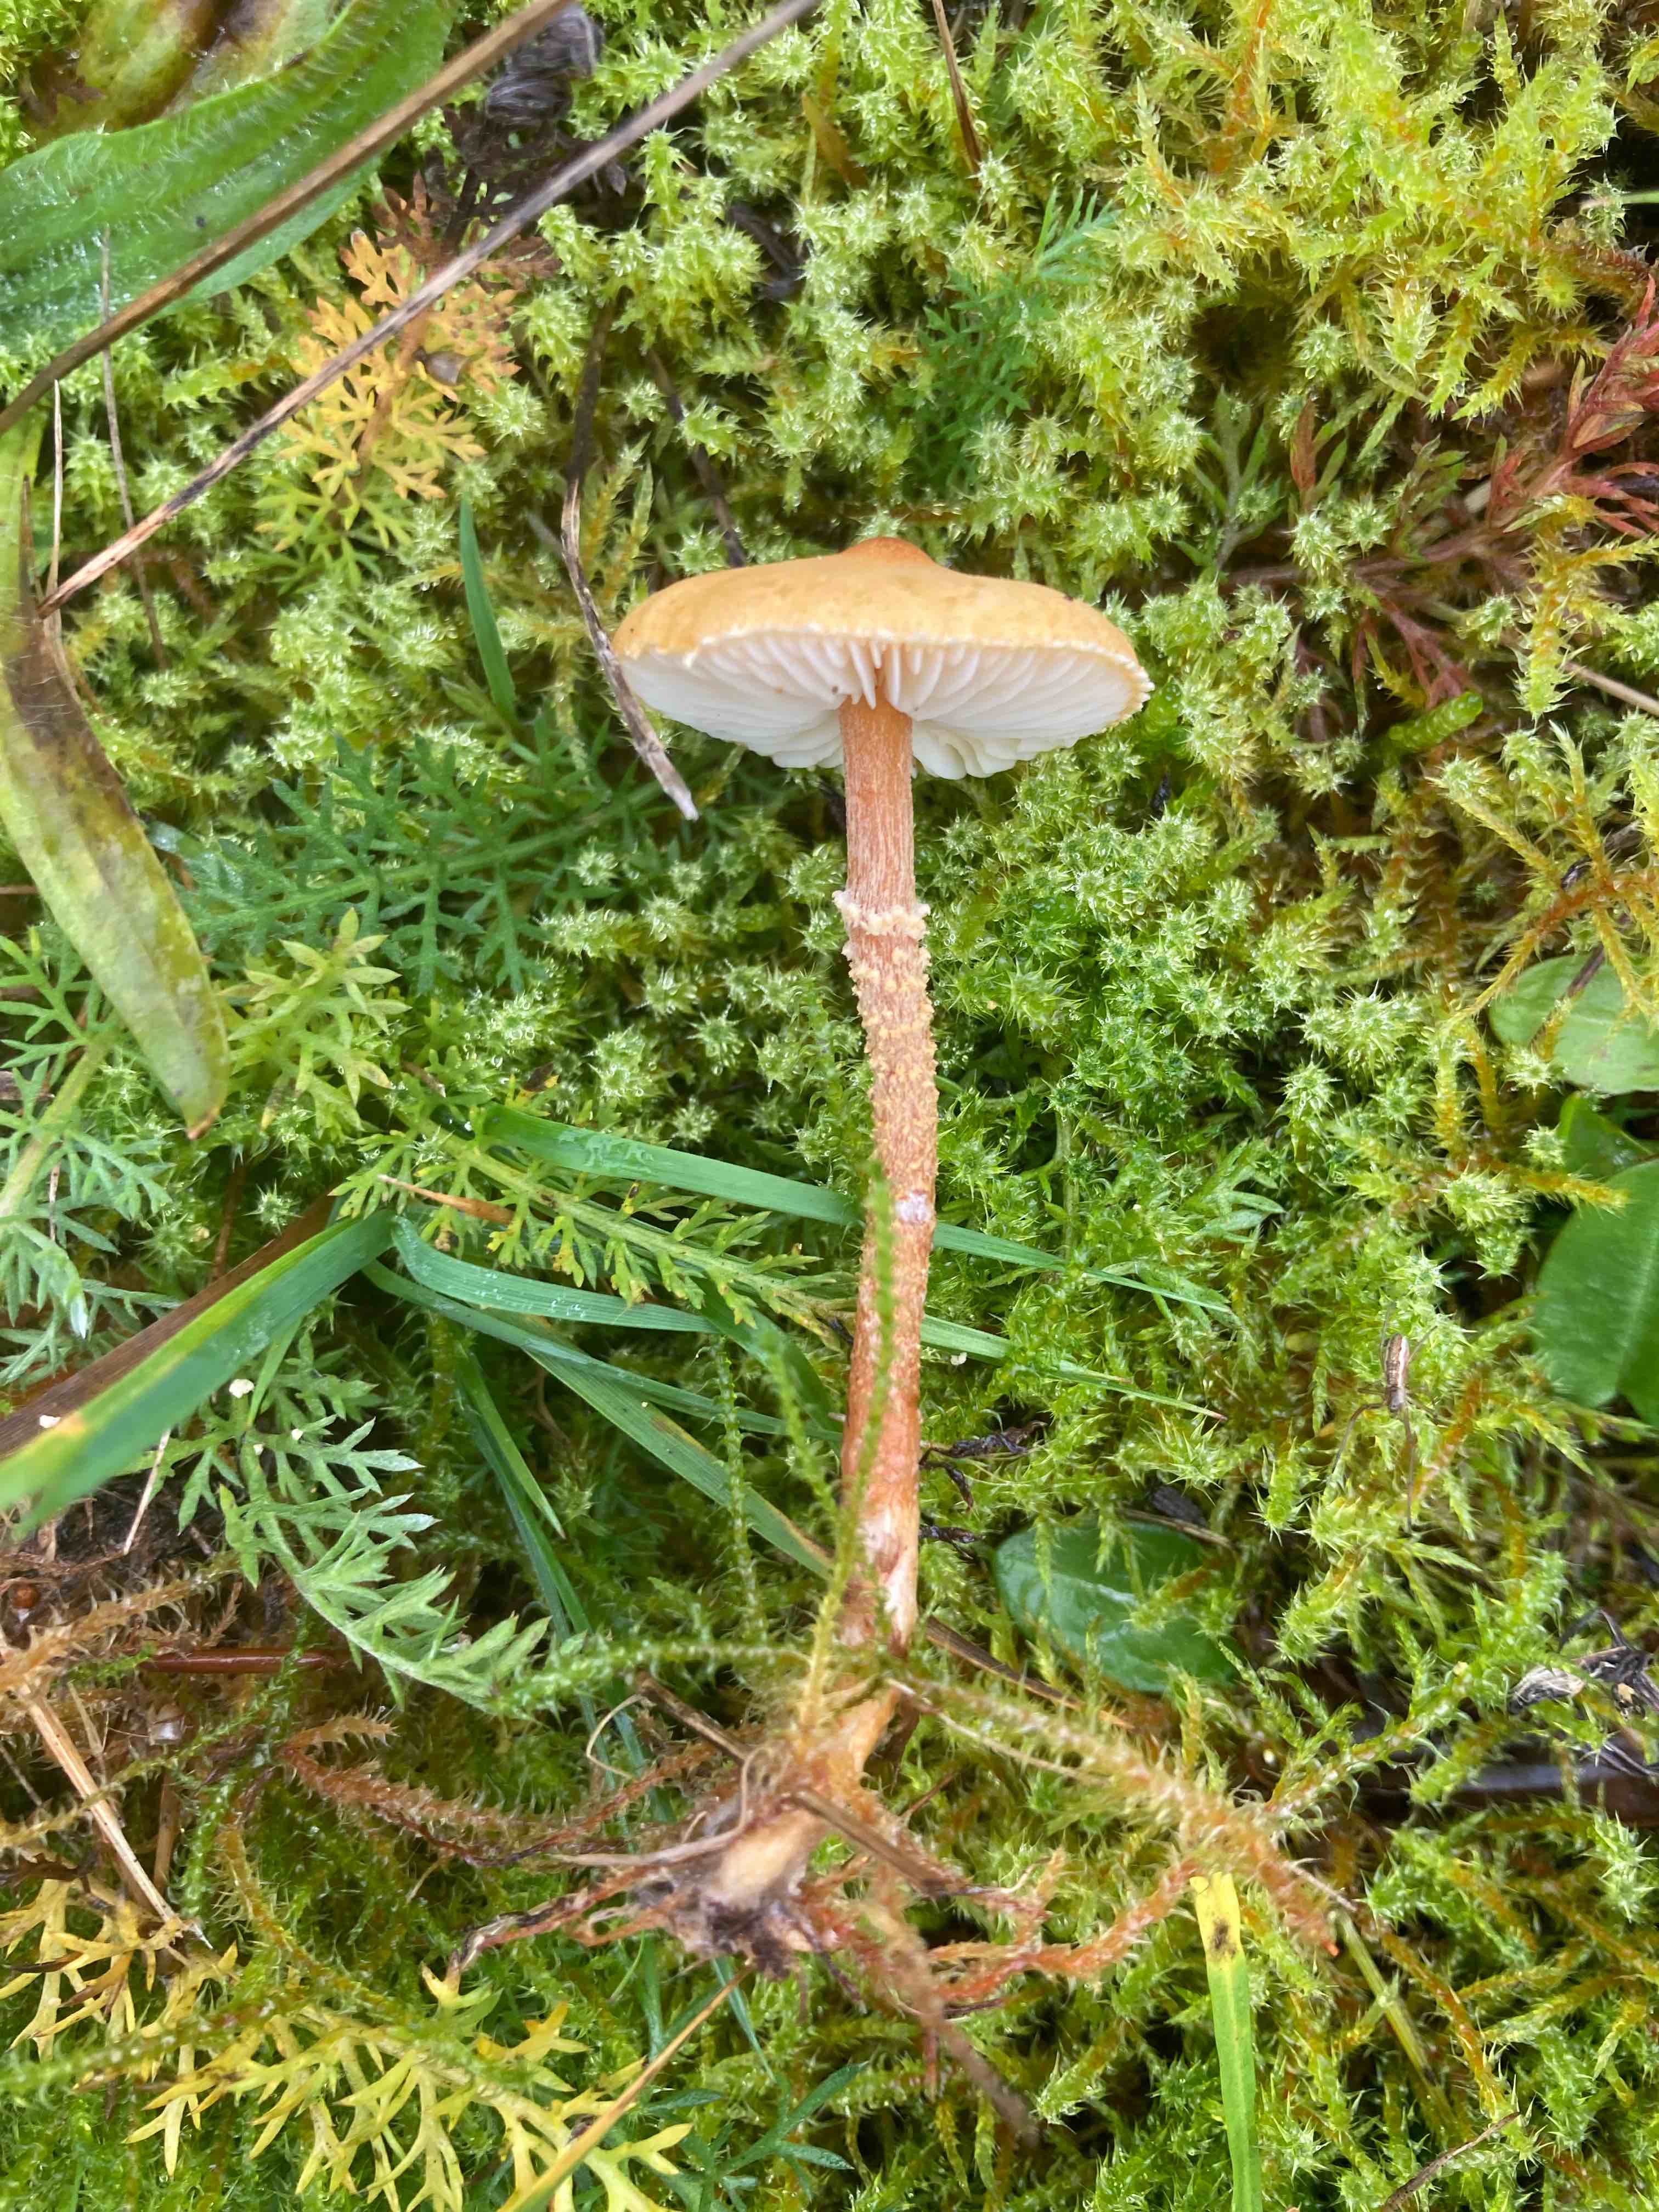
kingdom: Fungi
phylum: Basidiomycota
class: Agaricomycetes
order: Agaricales
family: Tricholomataceae
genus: Cystoderma
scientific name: Cystoderma amianthinum
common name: okkergul grynhat
